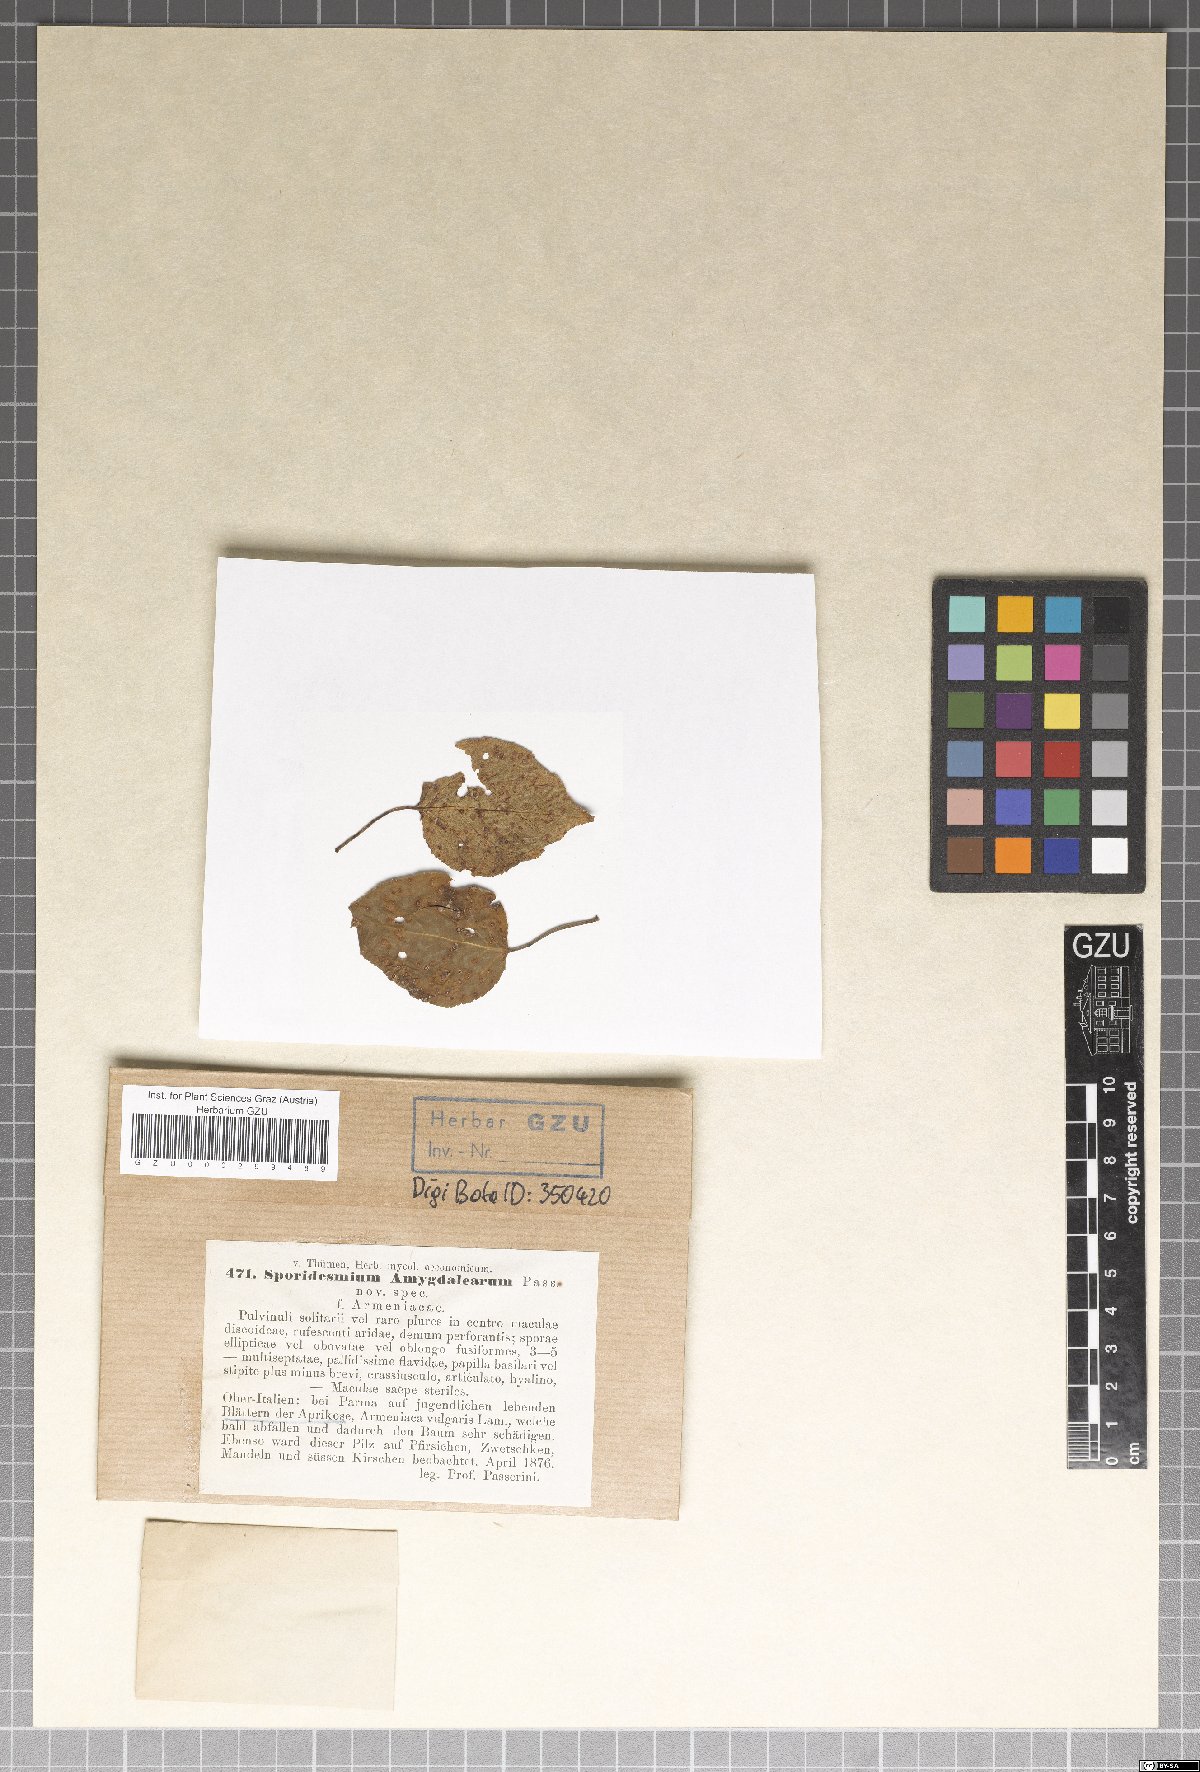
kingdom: Fungi
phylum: Ascomycota
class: Dothideomycetes
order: Mycosphaerellales
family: Mycosphaerellaceae
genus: Stigmina
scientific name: Stigmina carpophila
